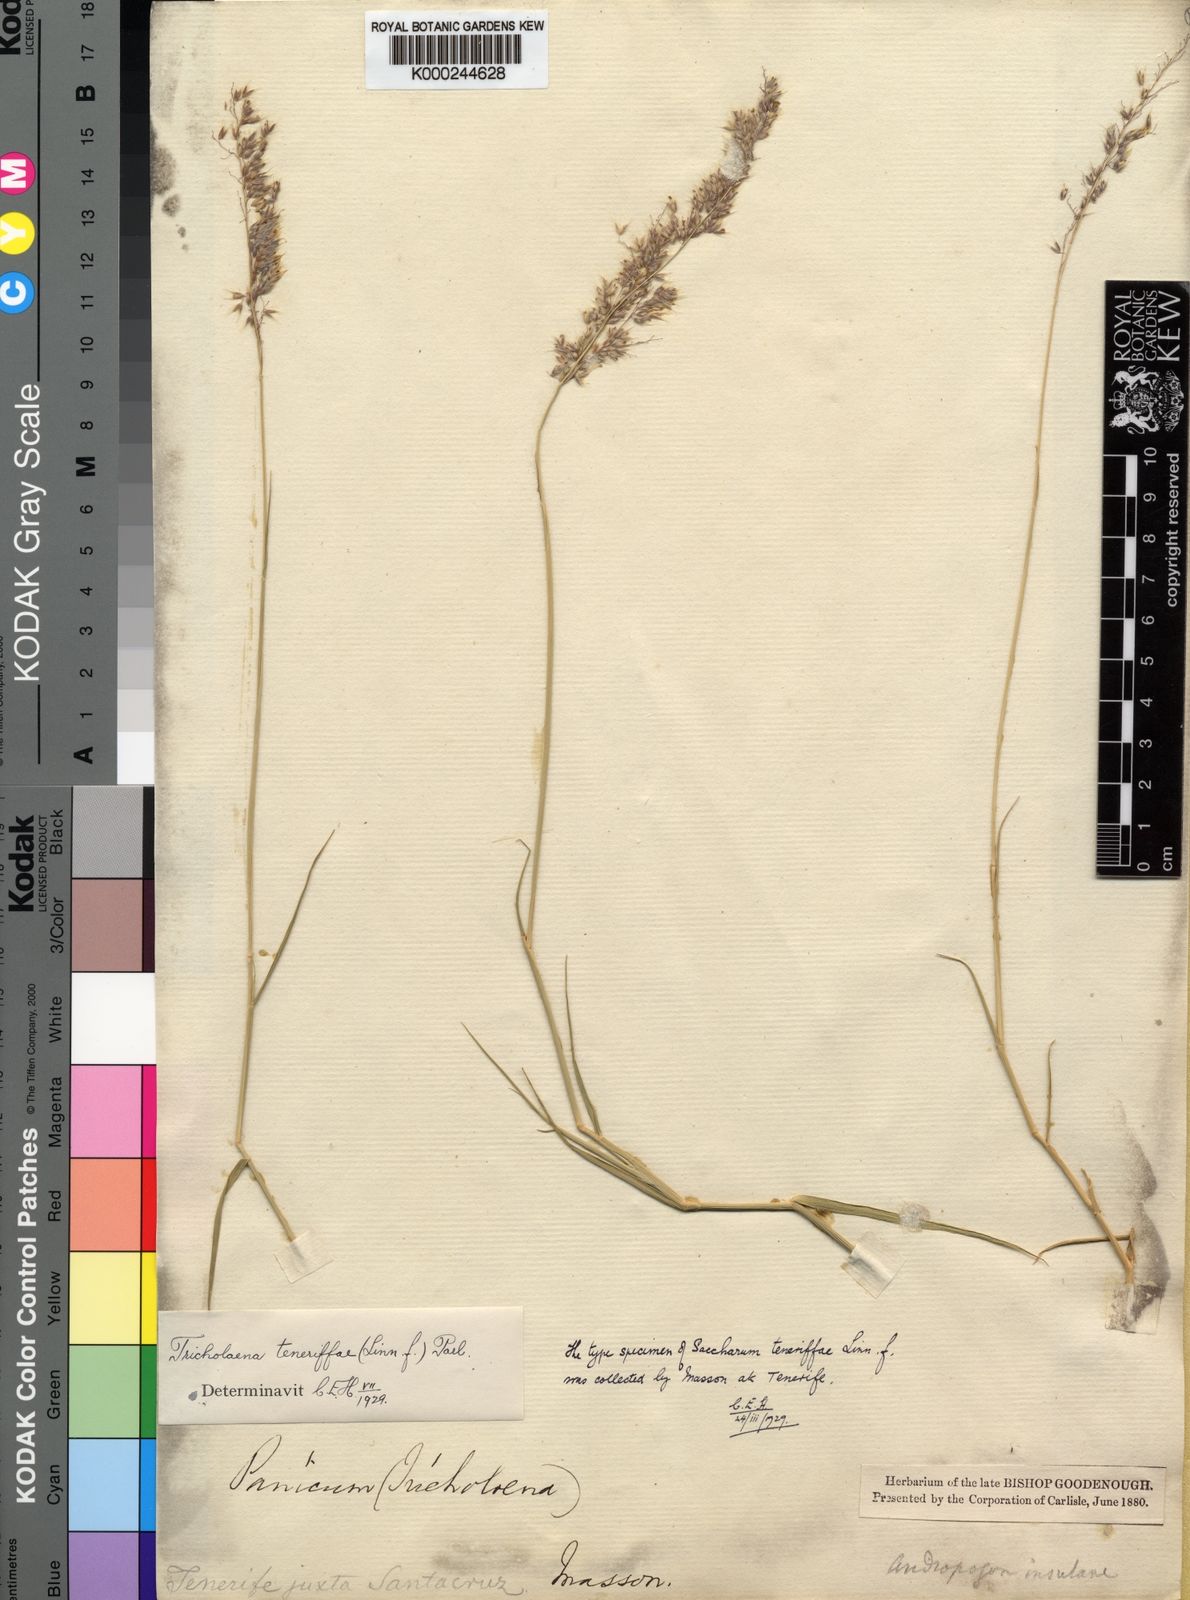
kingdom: Plantae
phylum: Tracheophyta
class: Liliopsida
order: Poales
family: Poaceae
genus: Tricholaena
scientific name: Tricholaena teneriffae
